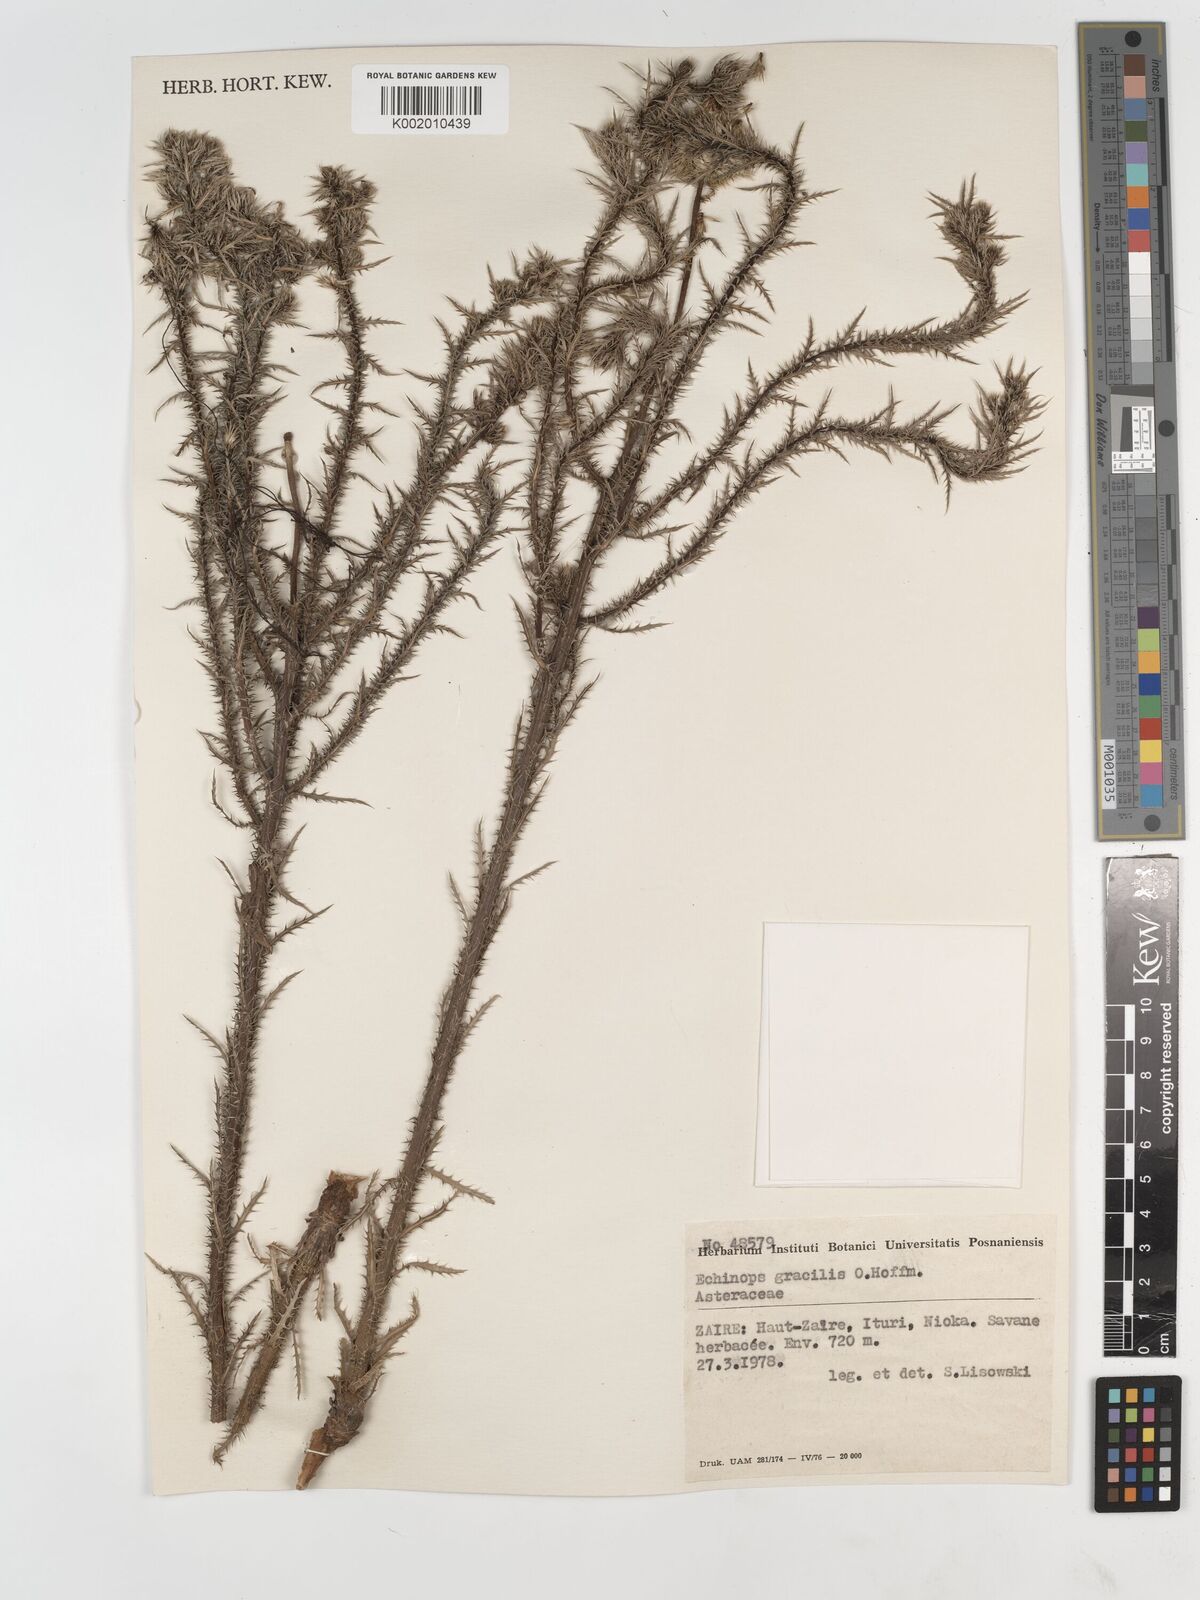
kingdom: Plantae
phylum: Tracheophyta
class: Magnoliopsida
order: Asterales
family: Asteraceae
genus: Echinops
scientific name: Echinops gracilis
